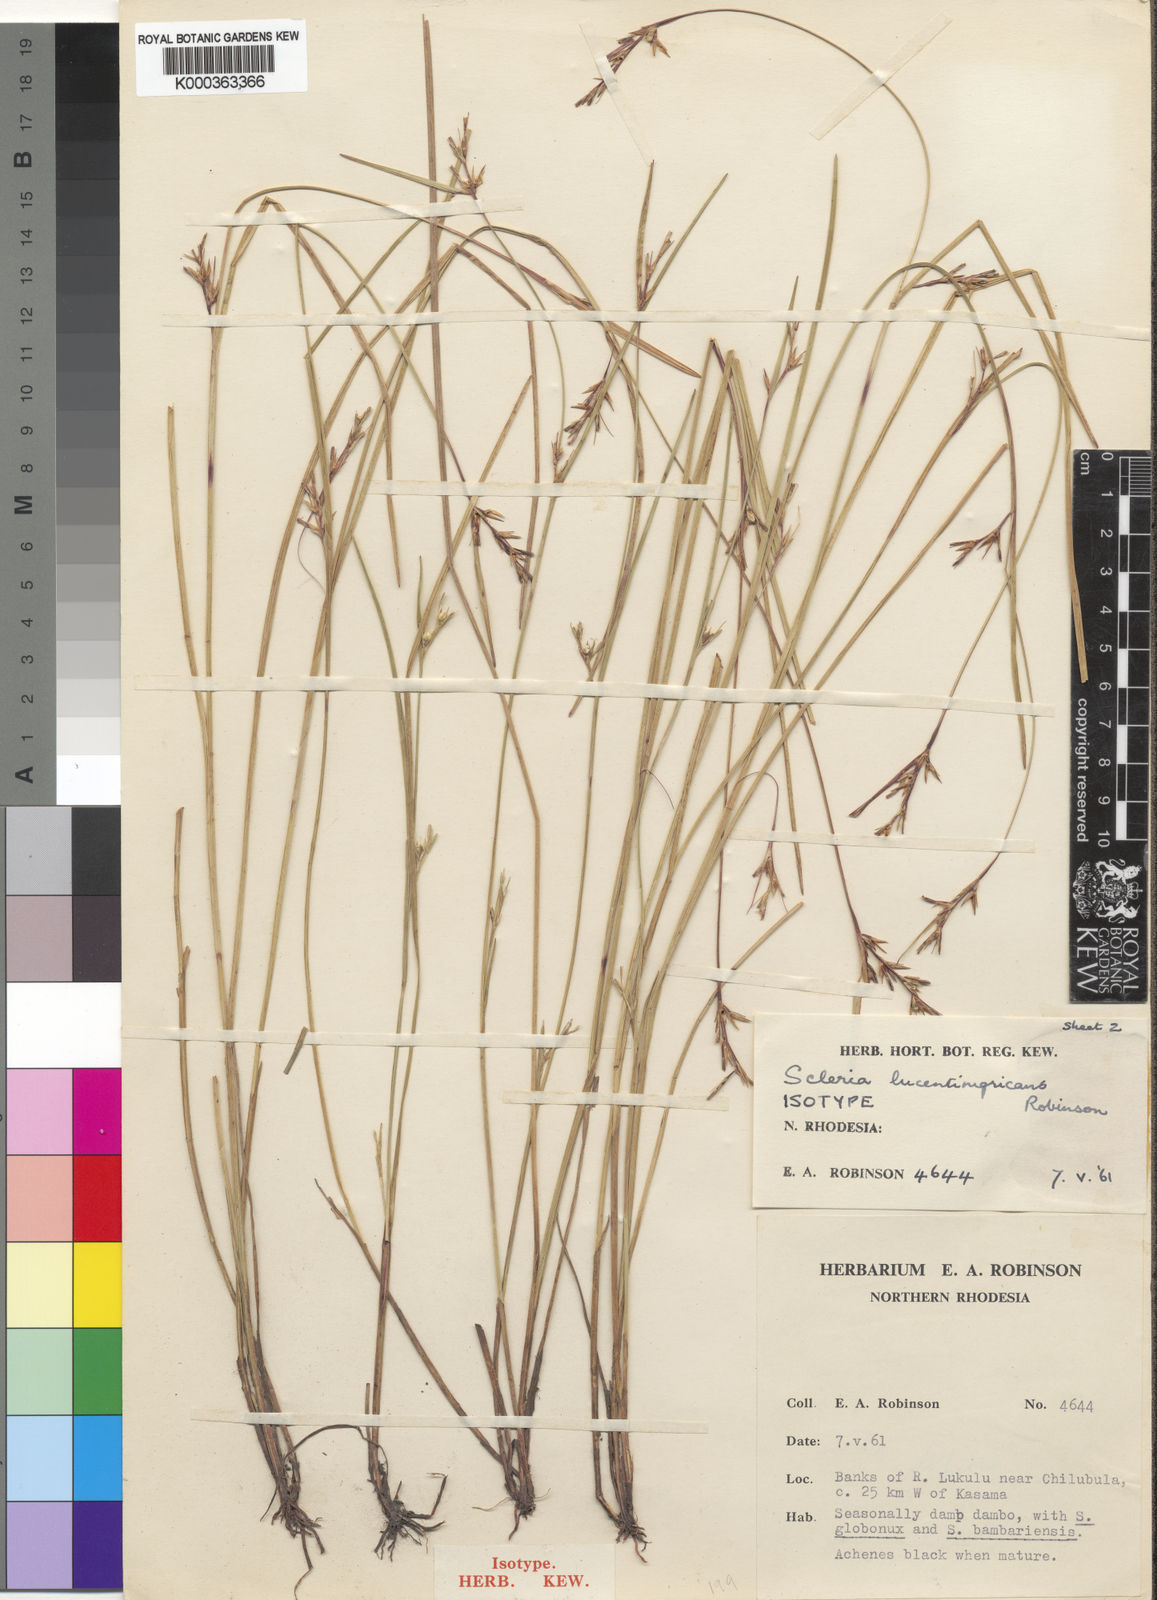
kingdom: Plantae
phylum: Tracheophyta
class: Liliopsida
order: Poales
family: Cyperaceae
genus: Scleria
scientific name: Scleria lucentinigricans
